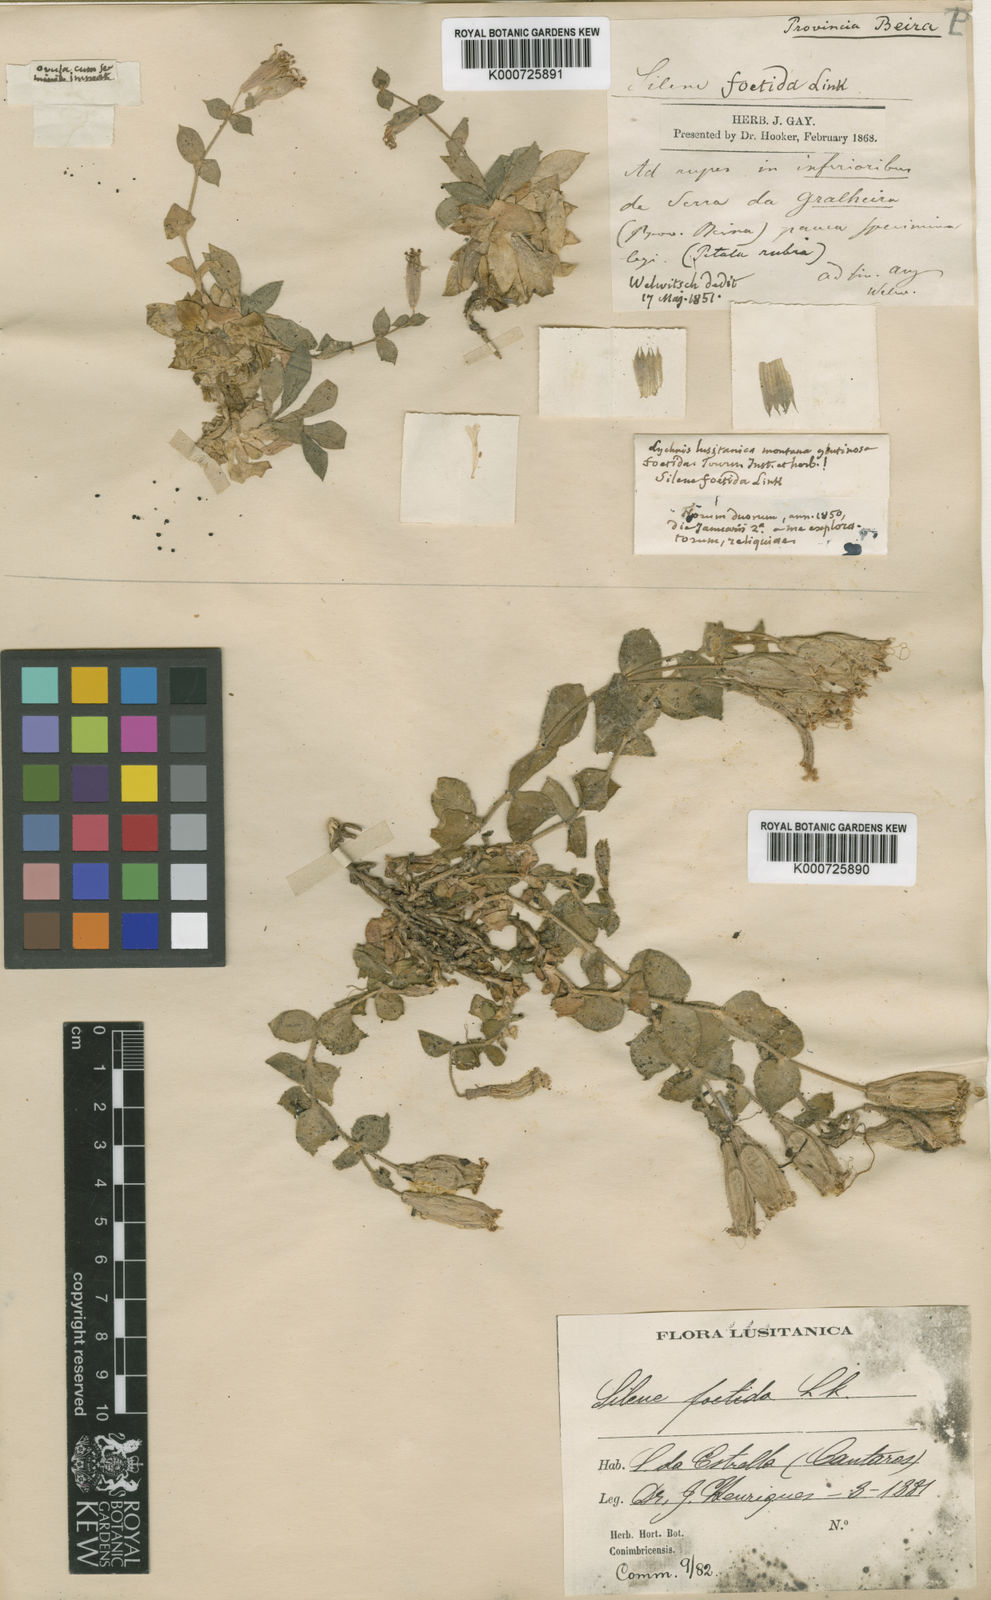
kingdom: Plantae
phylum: Tracheophyta
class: Magnoliopsida
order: Caryophyllales
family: Caryophyllaceae
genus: Silene
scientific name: Silene
